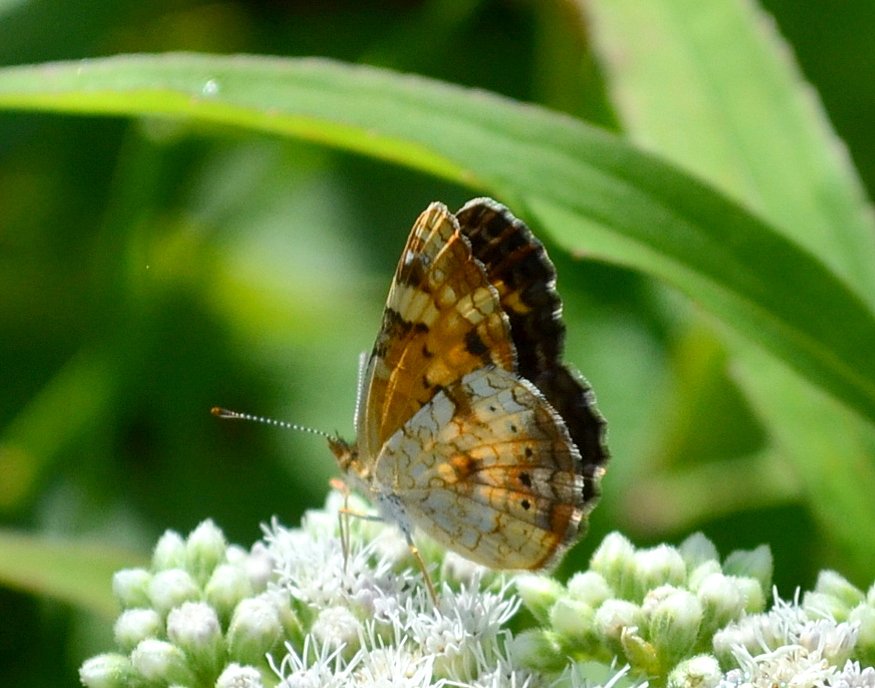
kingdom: Animalia
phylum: Arthropoda
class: Insecta
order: Lepidoptera
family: Nymphalidae
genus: Phyciodes
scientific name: Phyciodes tharos
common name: Northern Crescent
